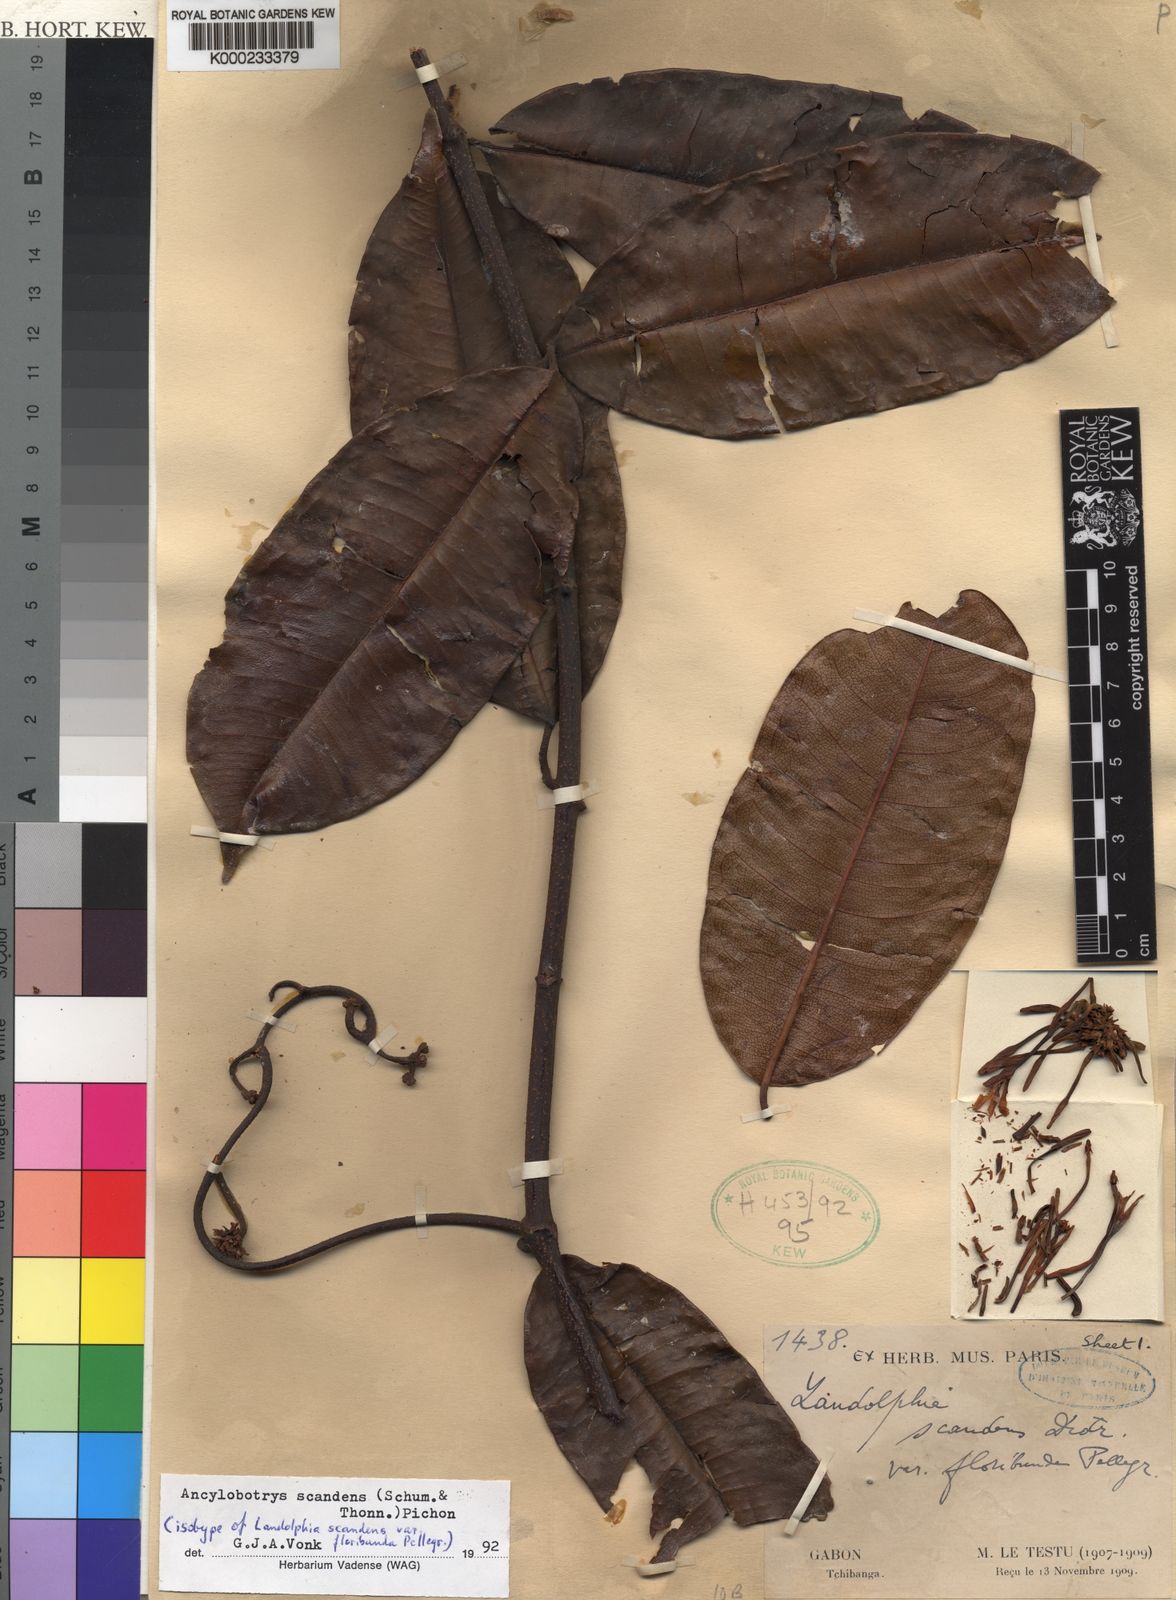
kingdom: Plantae
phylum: Tracheophyta
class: Magnoliopsida
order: Gentianales
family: Apocynaceae
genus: Ancylobothrys
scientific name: Ancylobothrys scandens
